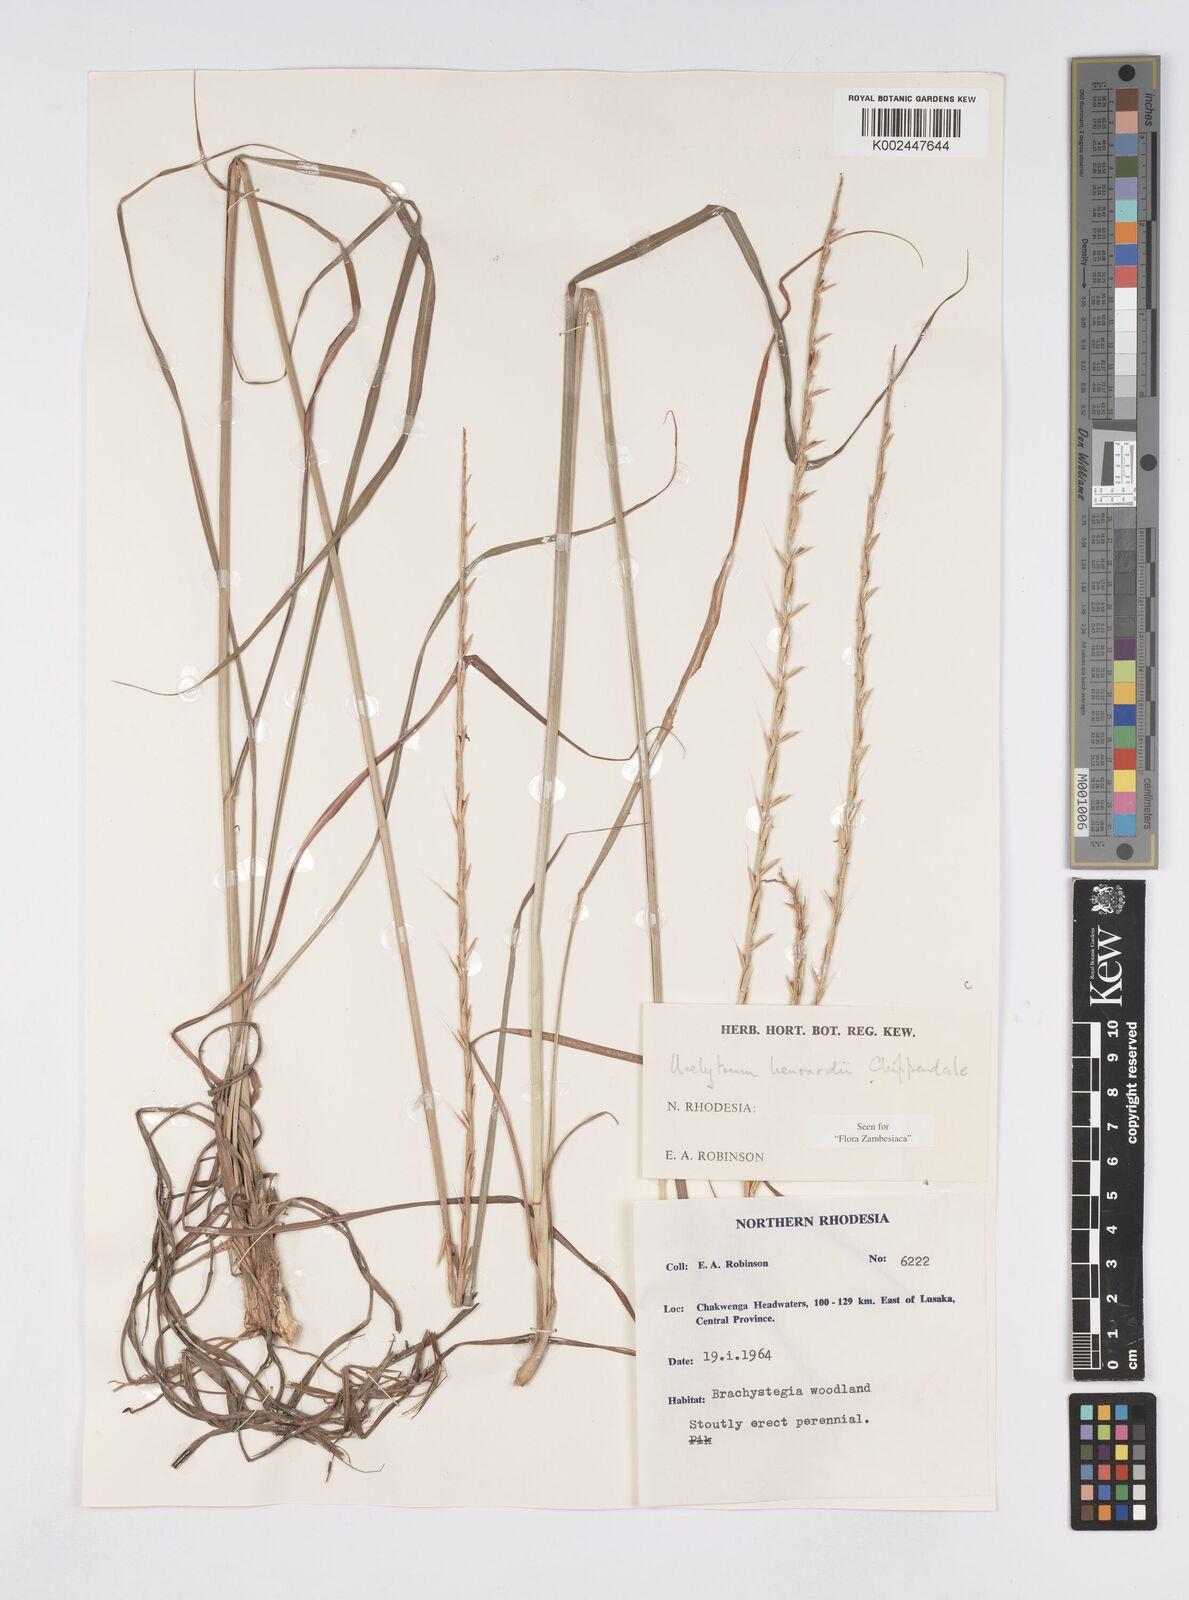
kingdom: Plantae
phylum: Tracheophyta
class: Liliopsida
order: Poales
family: Poaceae
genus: Urelytrum
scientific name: Urelytrum henrardii
